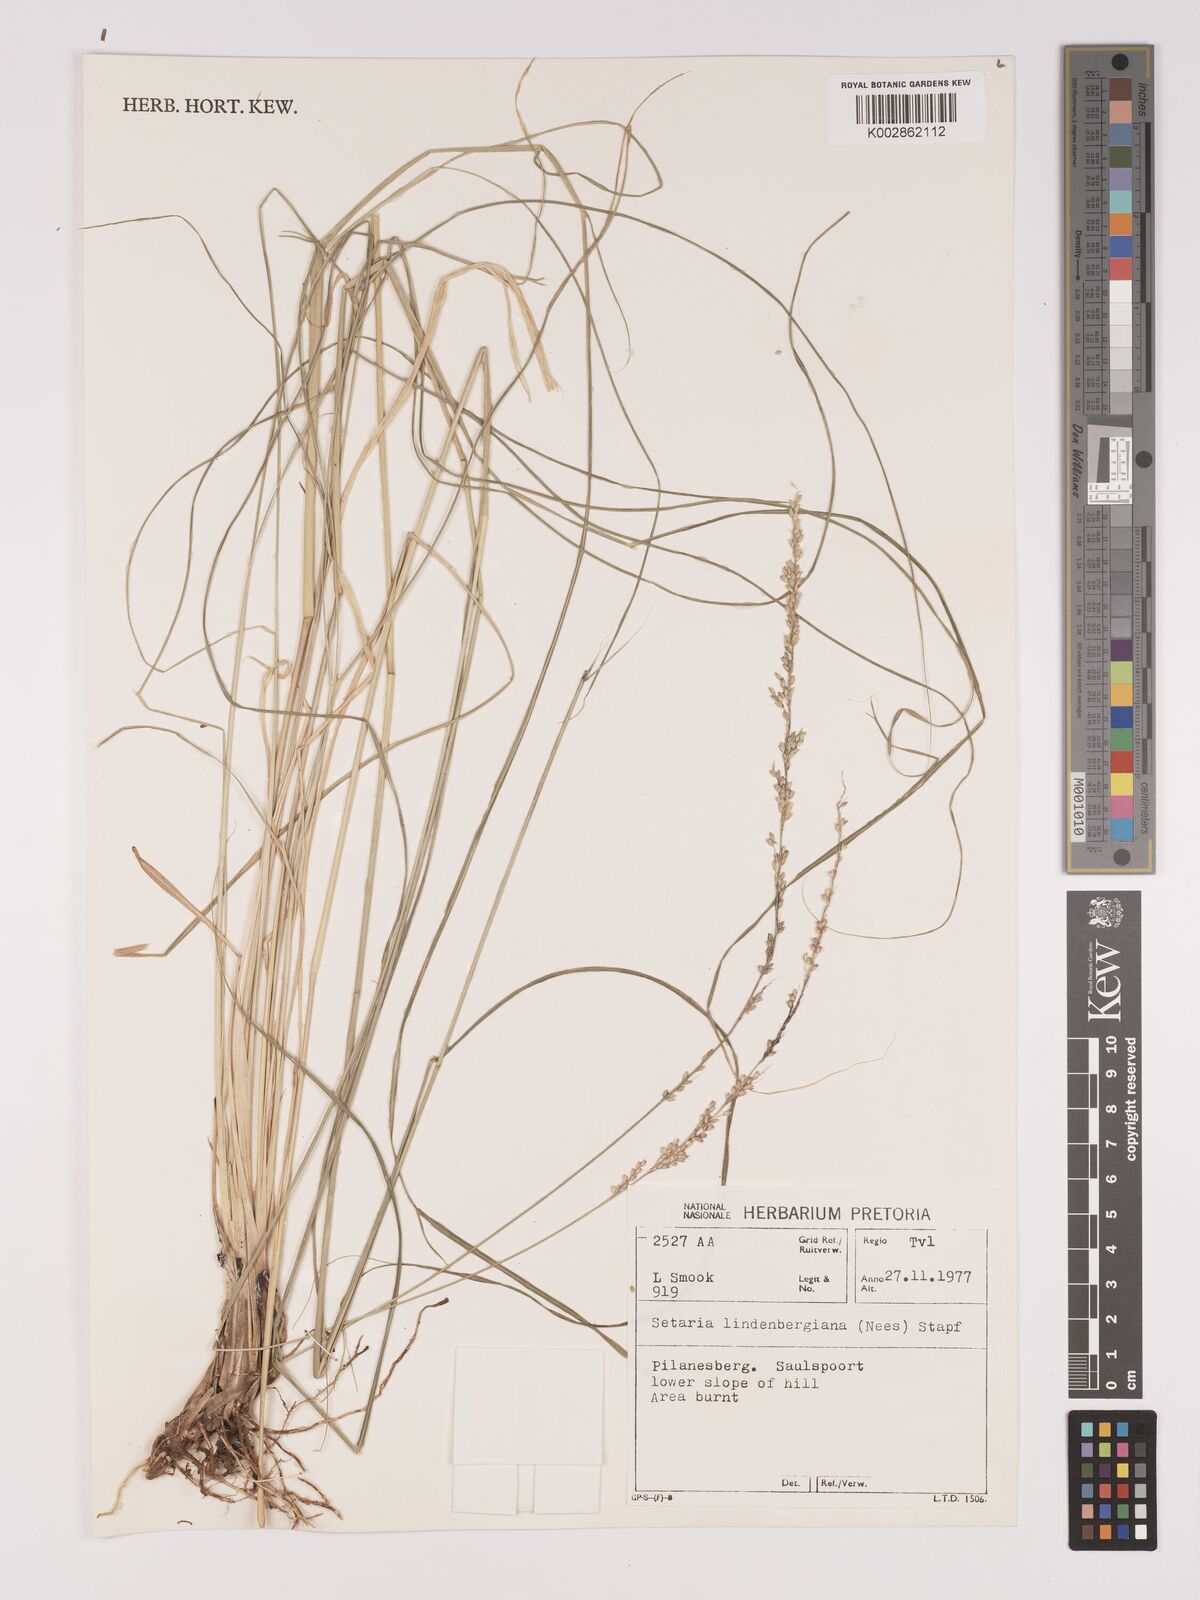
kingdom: Plantae
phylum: Tracheophyta
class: Liliopsida
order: Poales
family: Poaceae
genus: Setaria
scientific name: Setaria lindenbergiana
